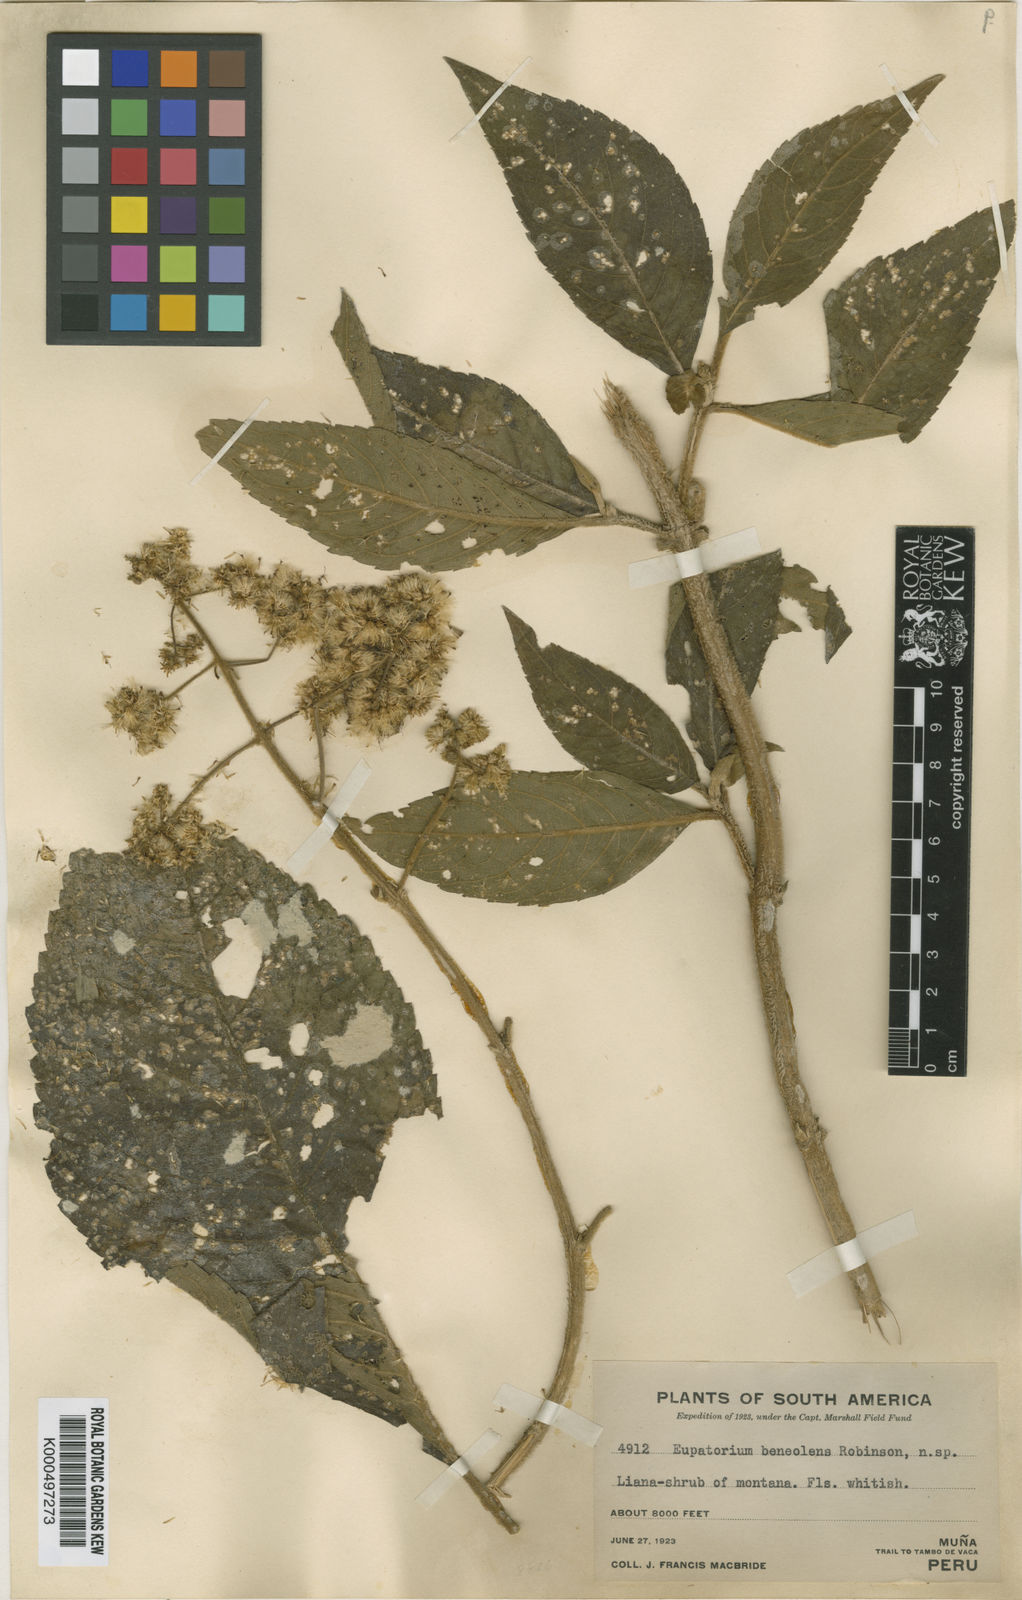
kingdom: Plantae
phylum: Tracheophyta
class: Magnoliopsida
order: Asterales
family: Asteraceae
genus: Hebeclinium
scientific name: Hebeclinium beneolens
